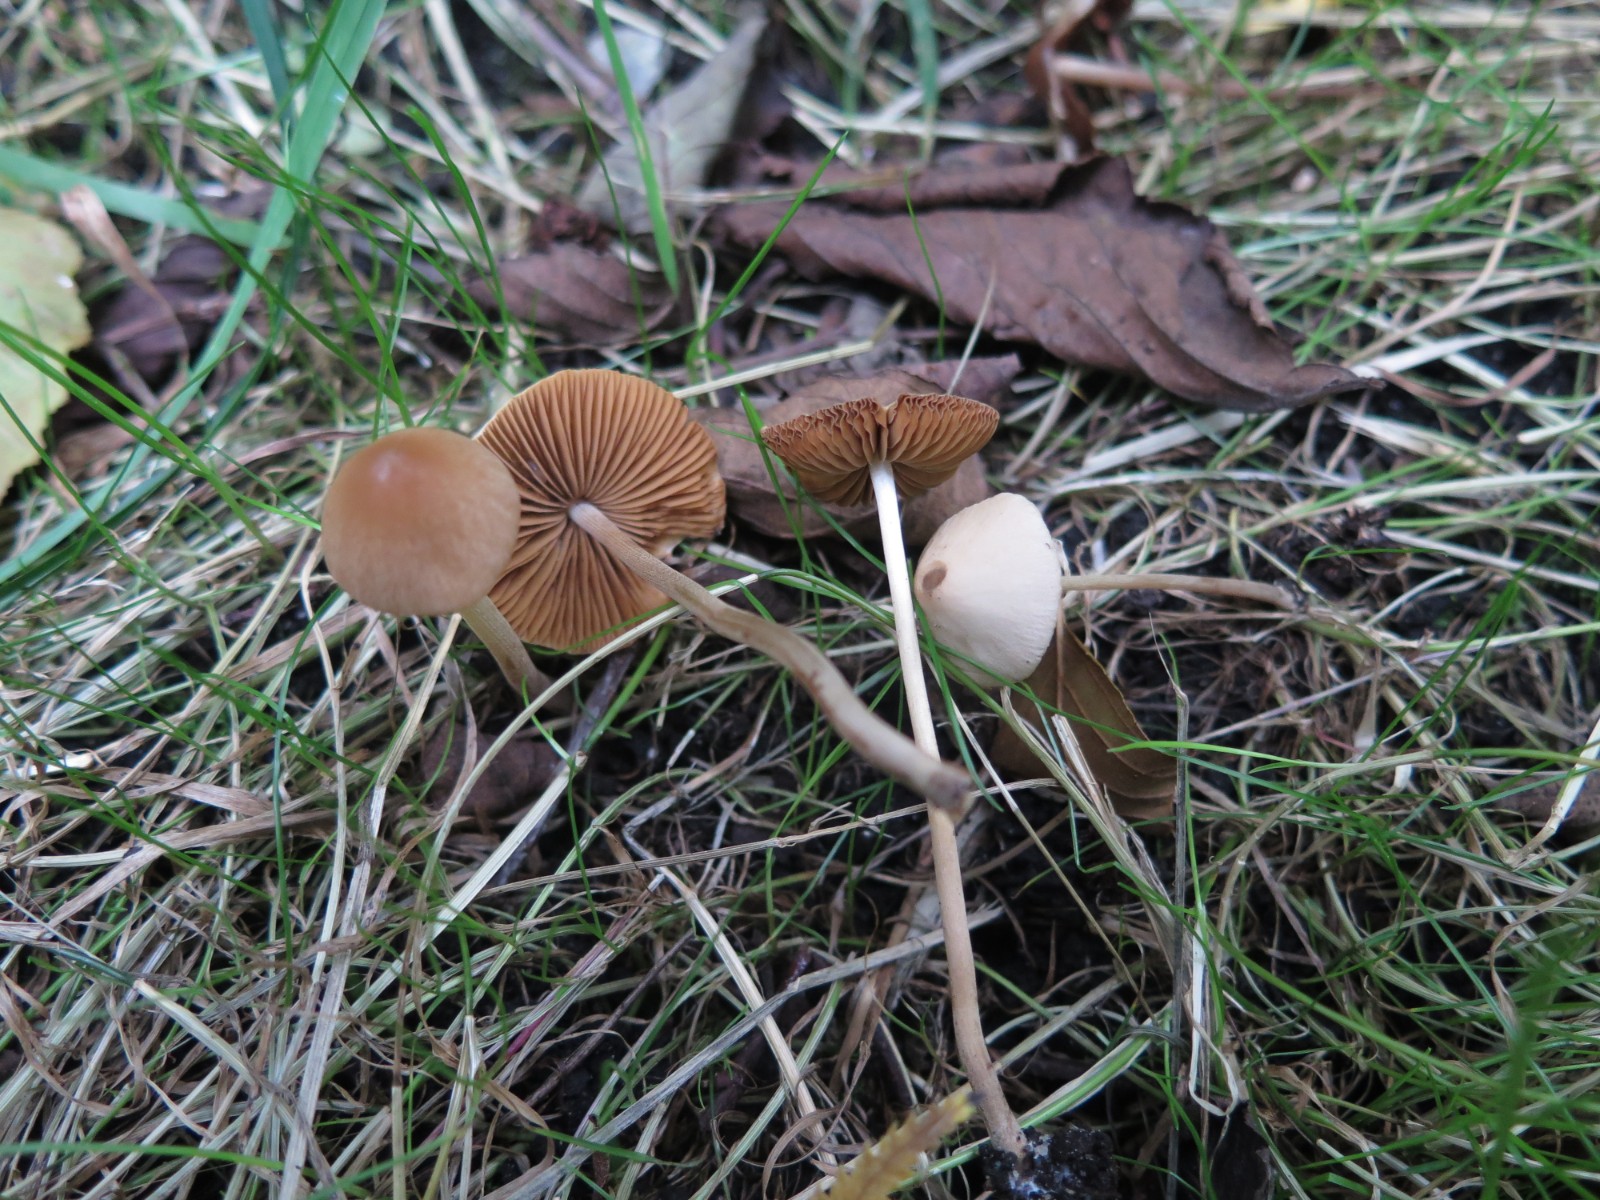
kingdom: Fungi
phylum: Basidiomycota
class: Agaricomycetes
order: Agaricales
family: Bolbitiaceae
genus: Conocybe
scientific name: Conocybe
